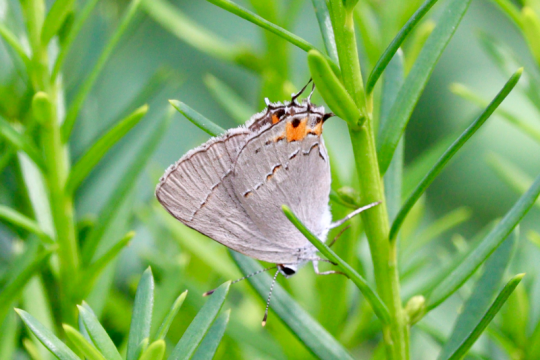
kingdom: Animalia
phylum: Arthropoda
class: Insecta
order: Lepidoptera
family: Lycaenidae
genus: Strymon
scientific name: Strymon melinus
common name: Gray Hairstreak
